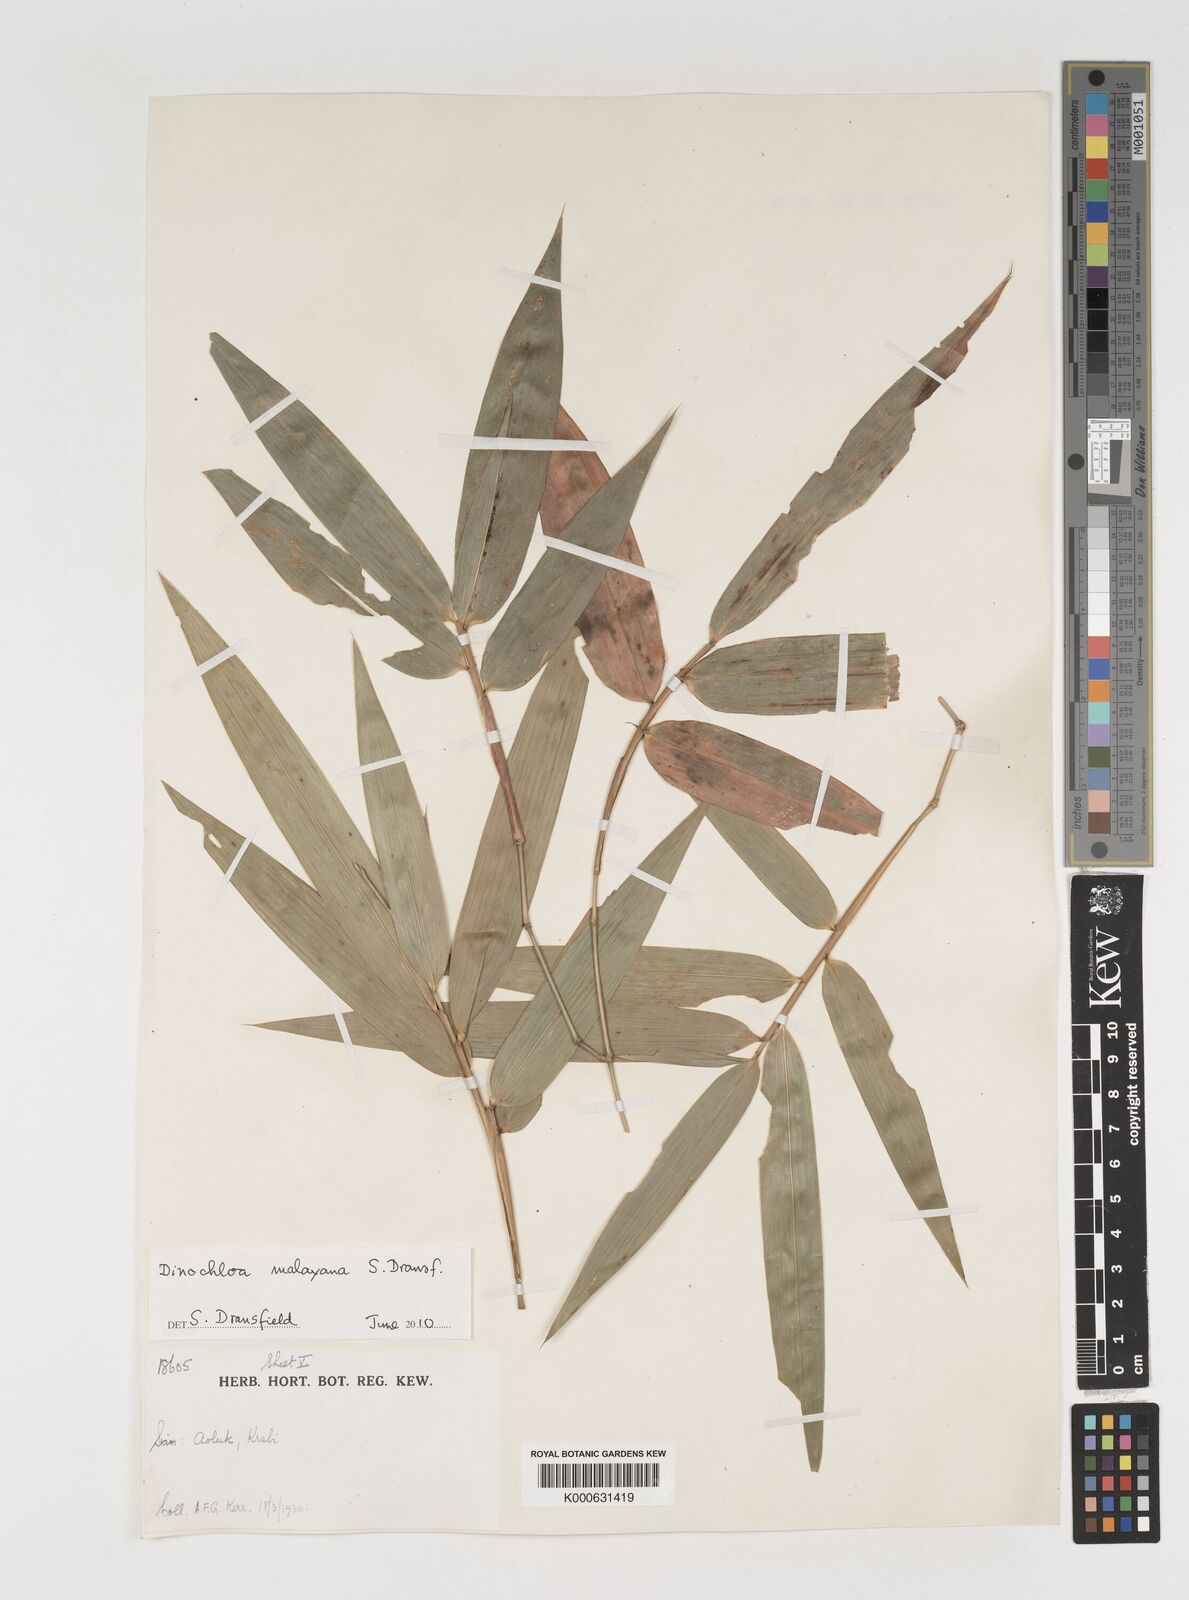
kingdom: Plantae
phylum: Tracheophyta
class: Liliopsida
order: Poales
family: Poaceae
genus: Dinochloa
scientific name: Dinochloa andamanica
